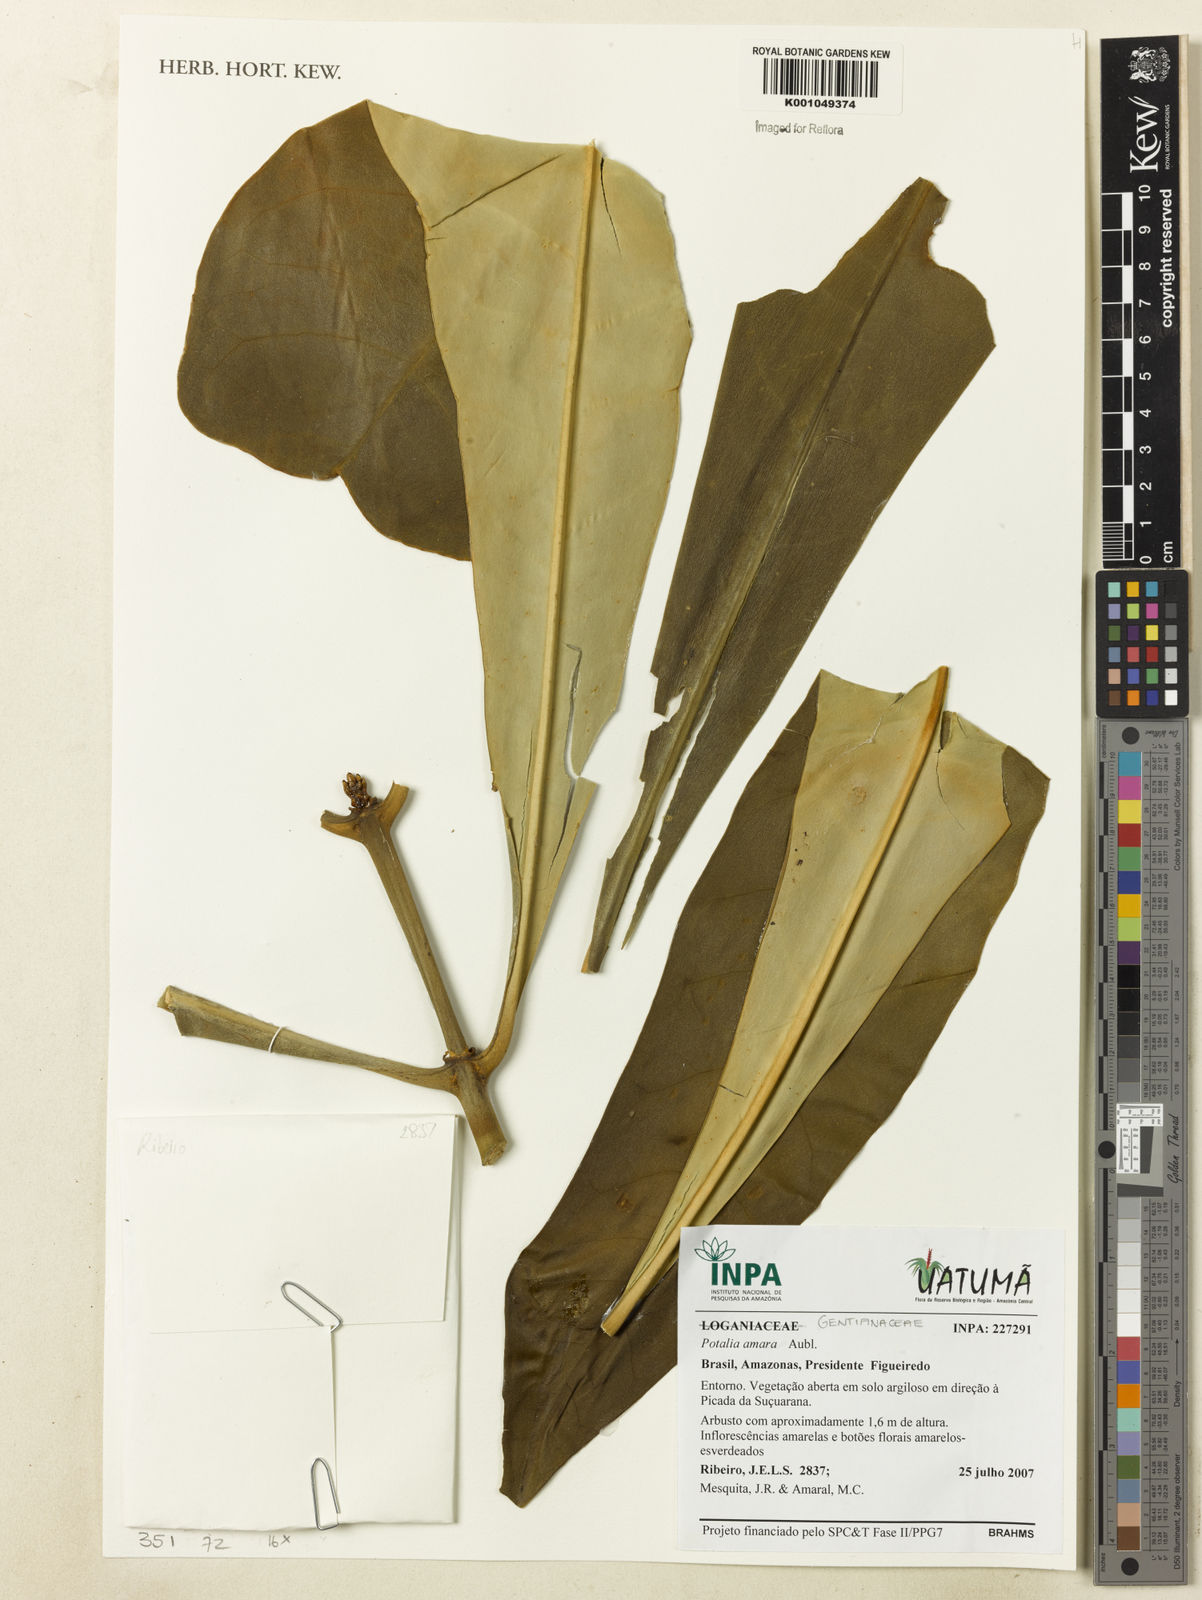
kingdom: Plantae
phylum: Tracheophyta
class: Magnoliopsida
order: Gentianales
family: Gentianaceae
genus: Potalia
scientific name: Potalia amara
